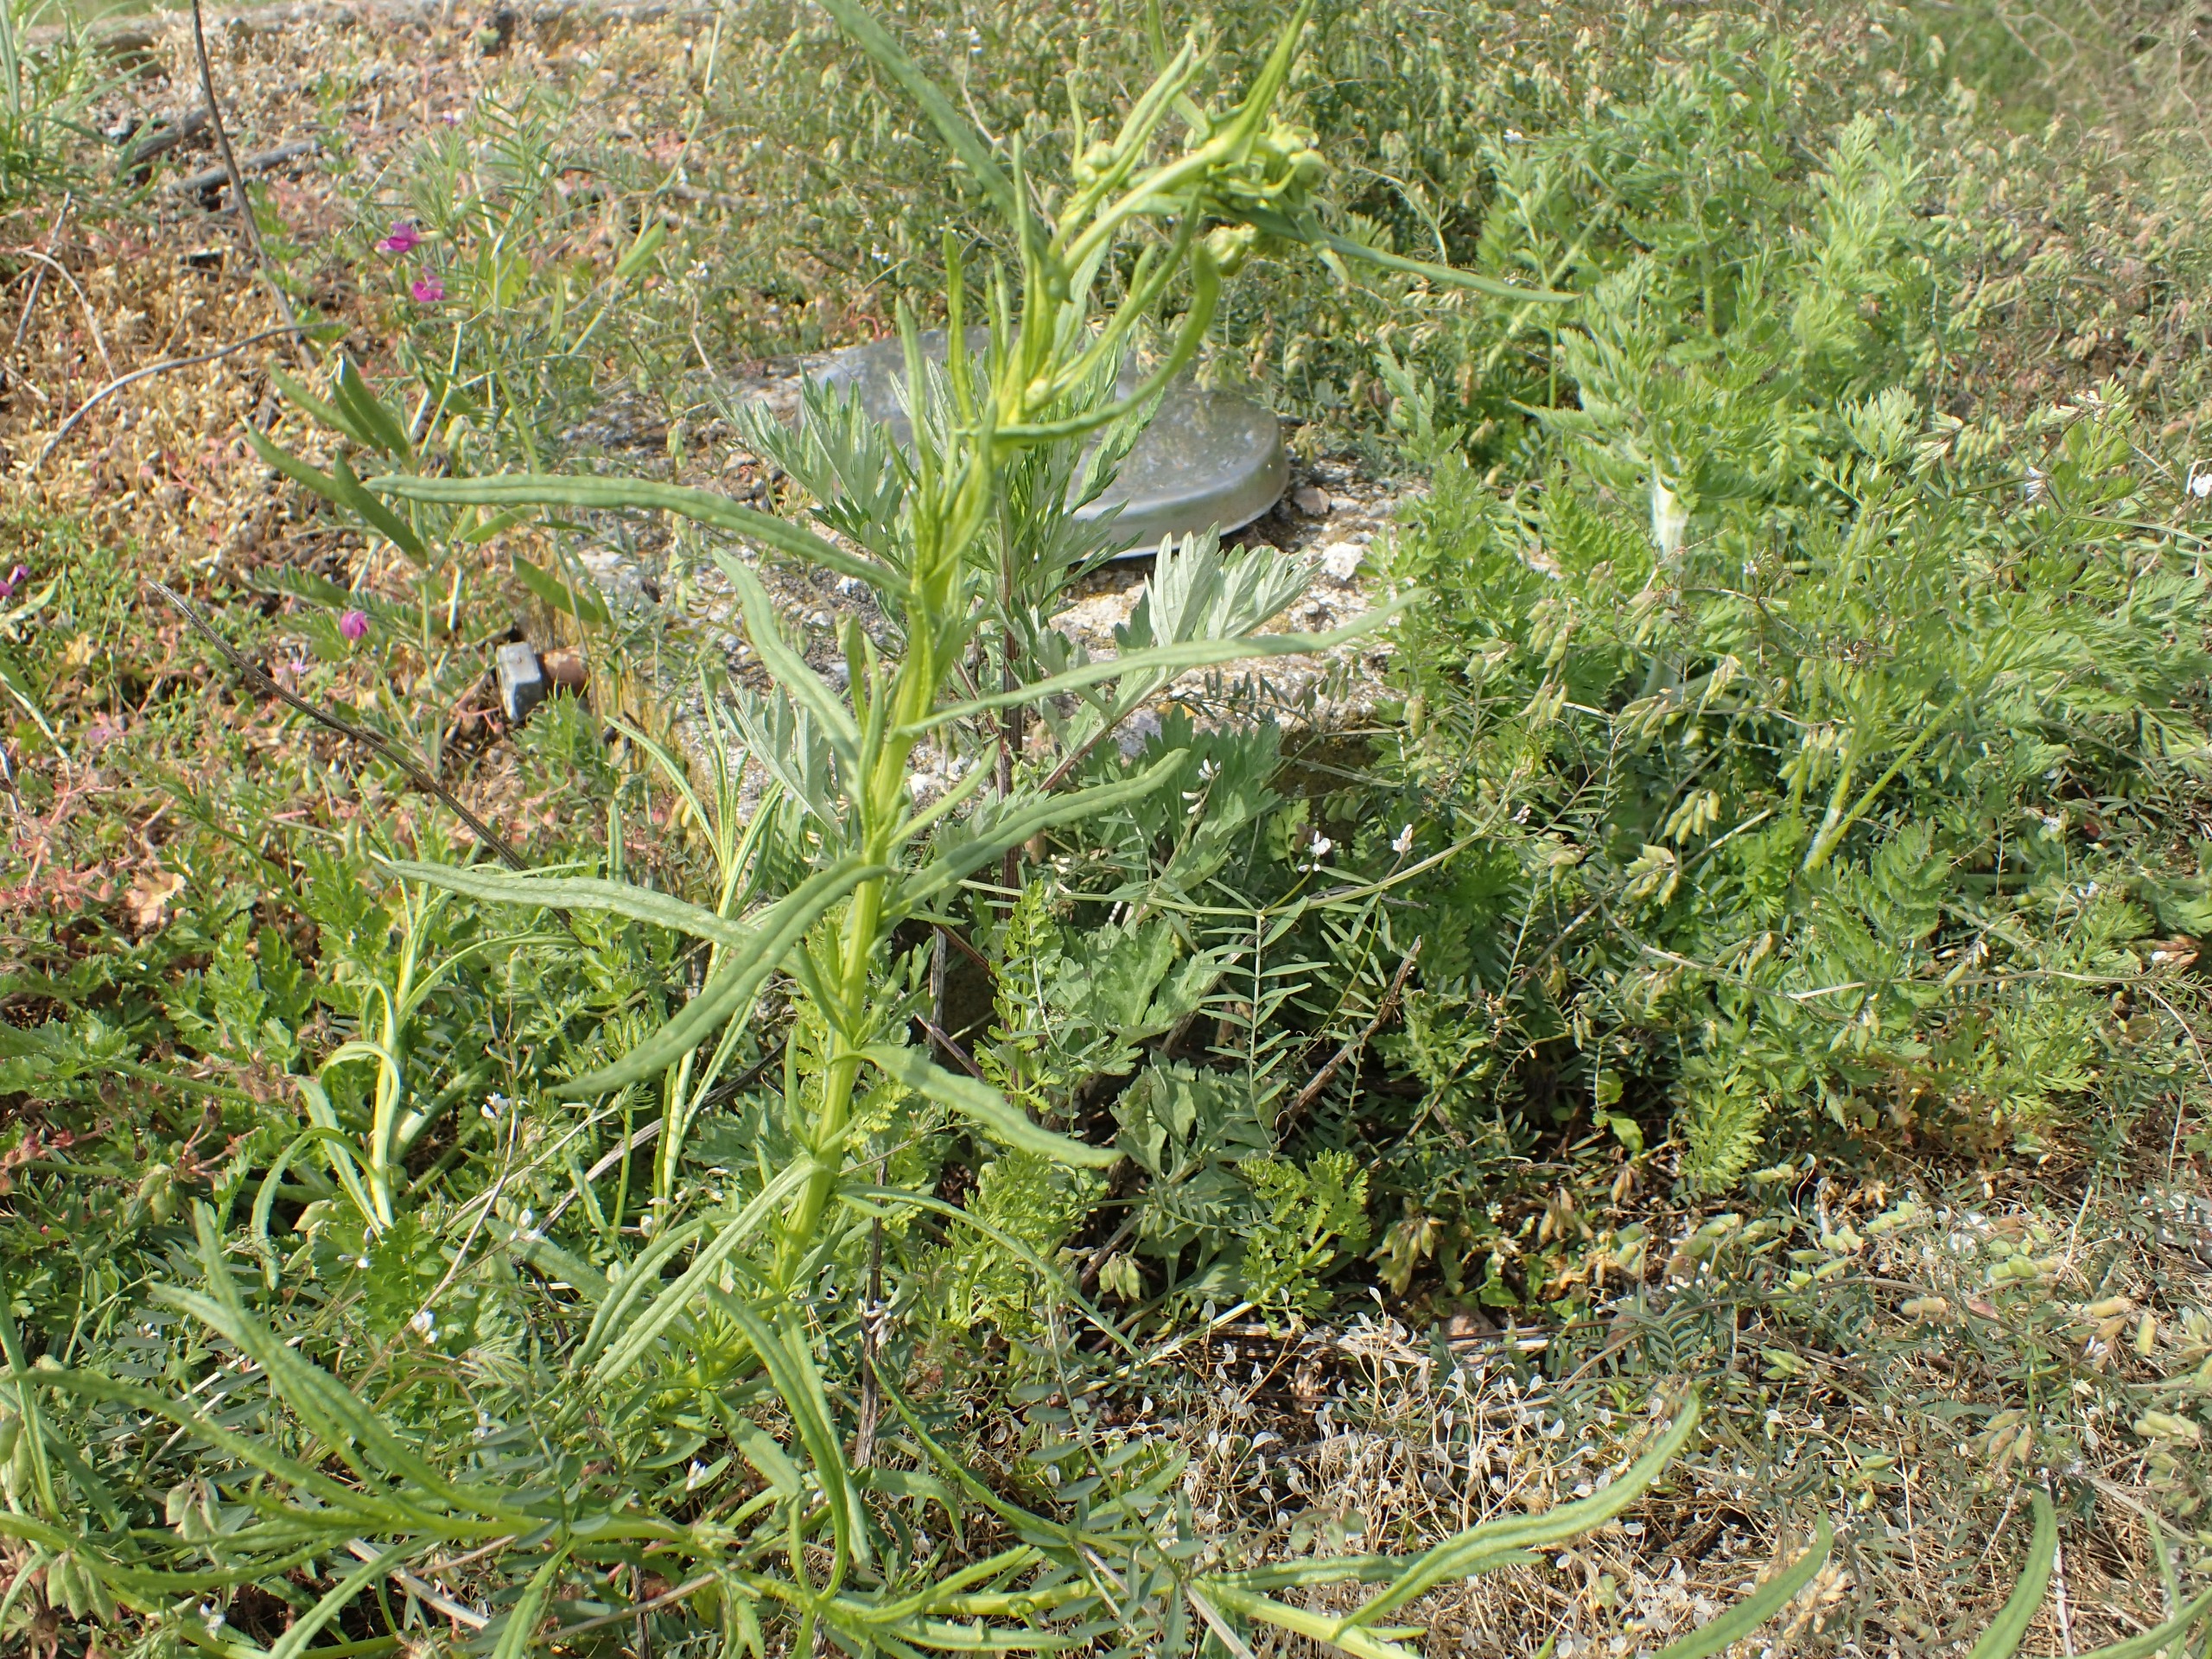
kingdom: Plantae
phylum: Tracheophyta
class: Magnoliopsida
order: Asterales
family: Asteraceae
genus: Senecio
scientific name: Senecio inaequidens
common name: Smalbladet brandbæger
